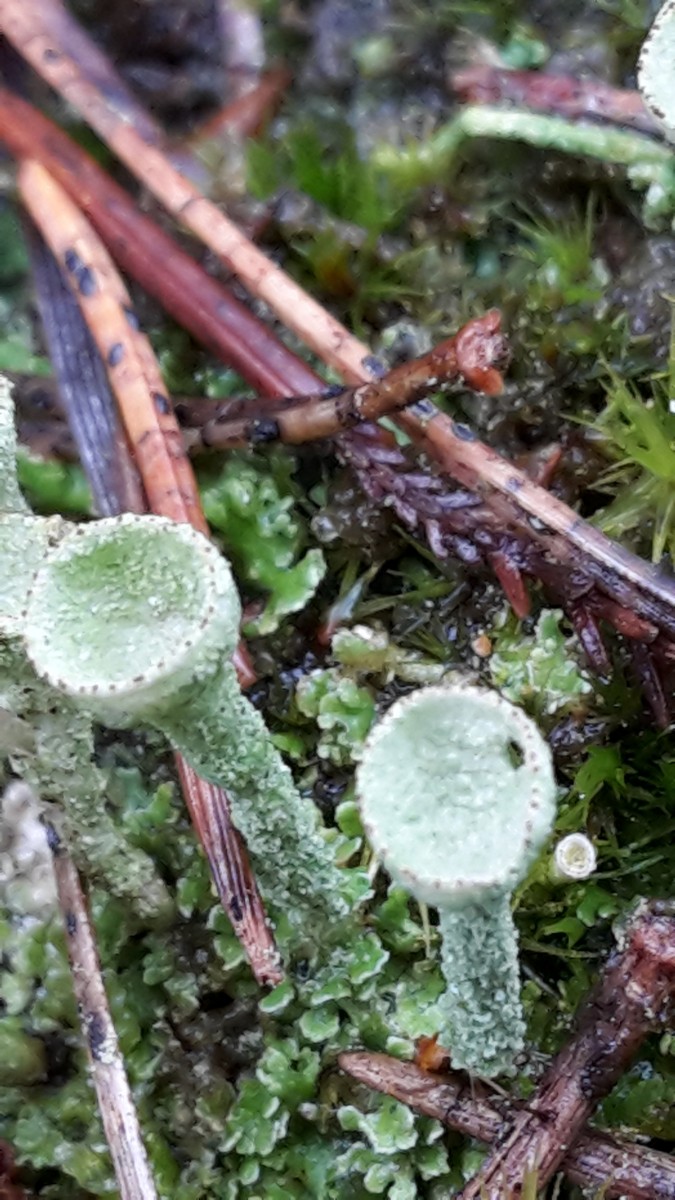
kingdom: Fungi
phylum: Ascomycota
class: Lecanoromycetes
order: Lecanorales
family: Cladoniaceae
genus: Cladonia
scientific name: Cladonia
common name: brungrøn bægerlav
